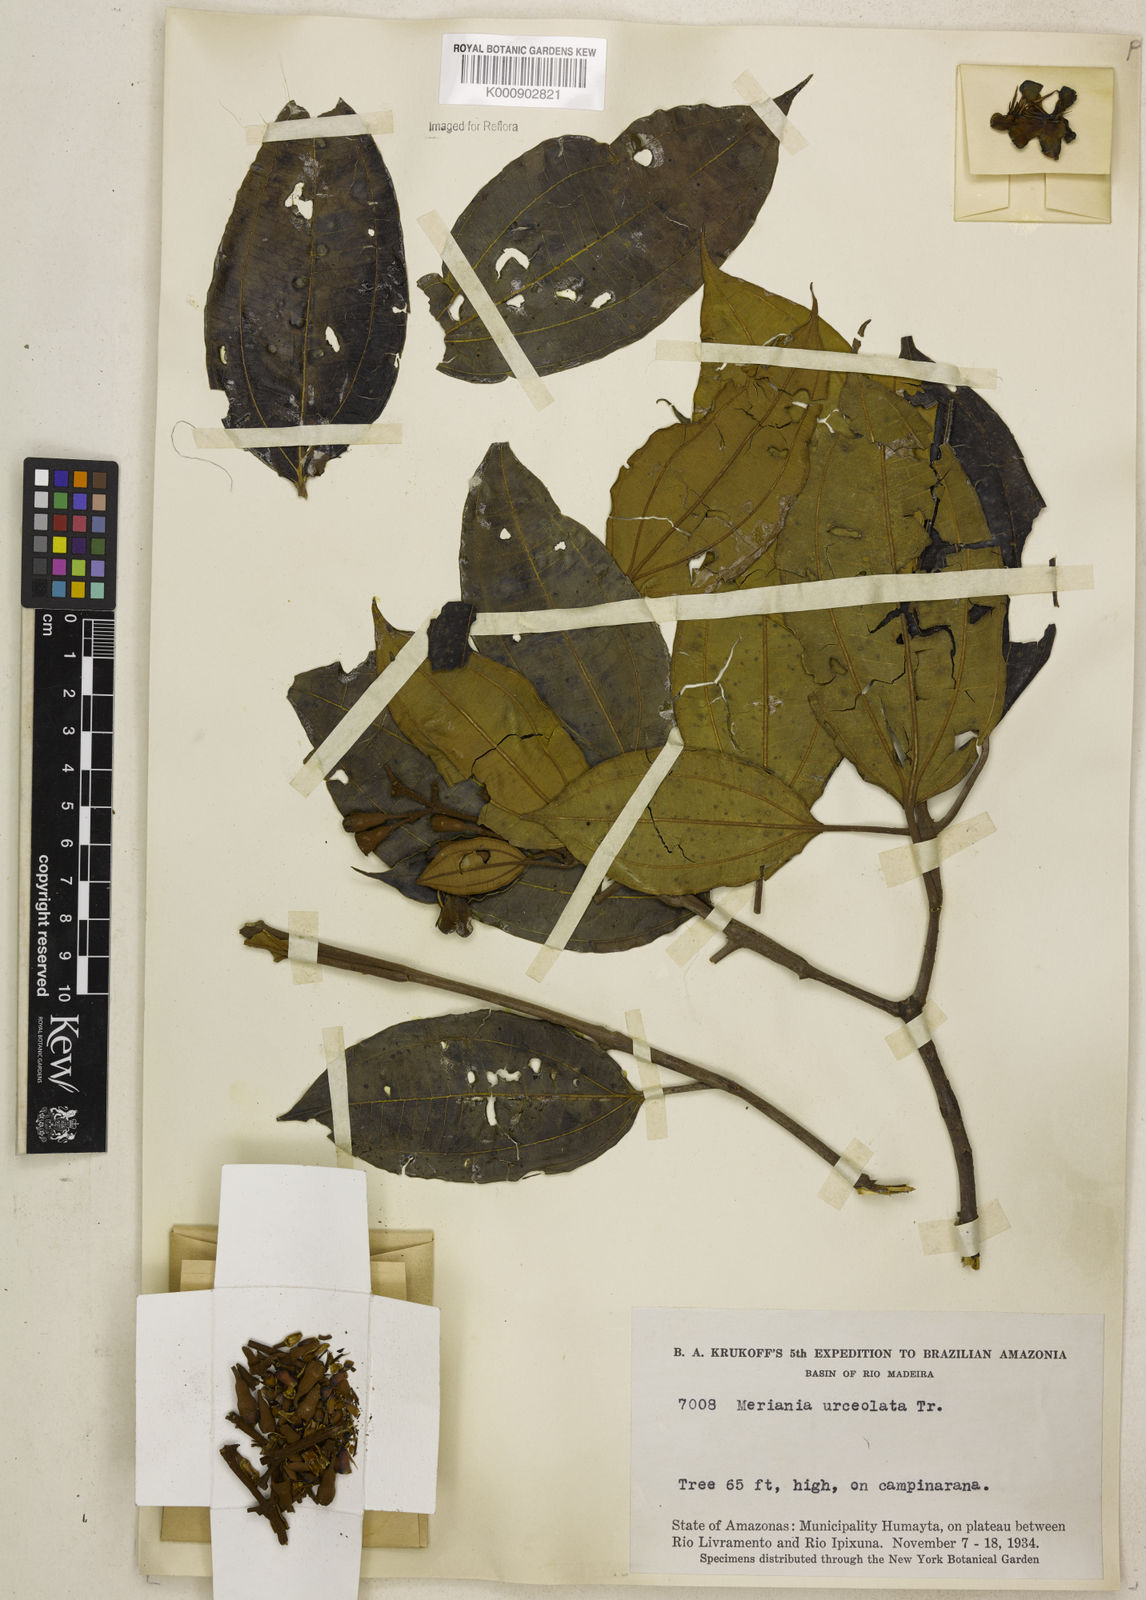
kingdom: Plantae
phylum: Tracheophyta
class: Magnoliopsida
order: Myrtales
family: Melastomataceae
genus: Meriania
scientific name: Meriania urceolata
